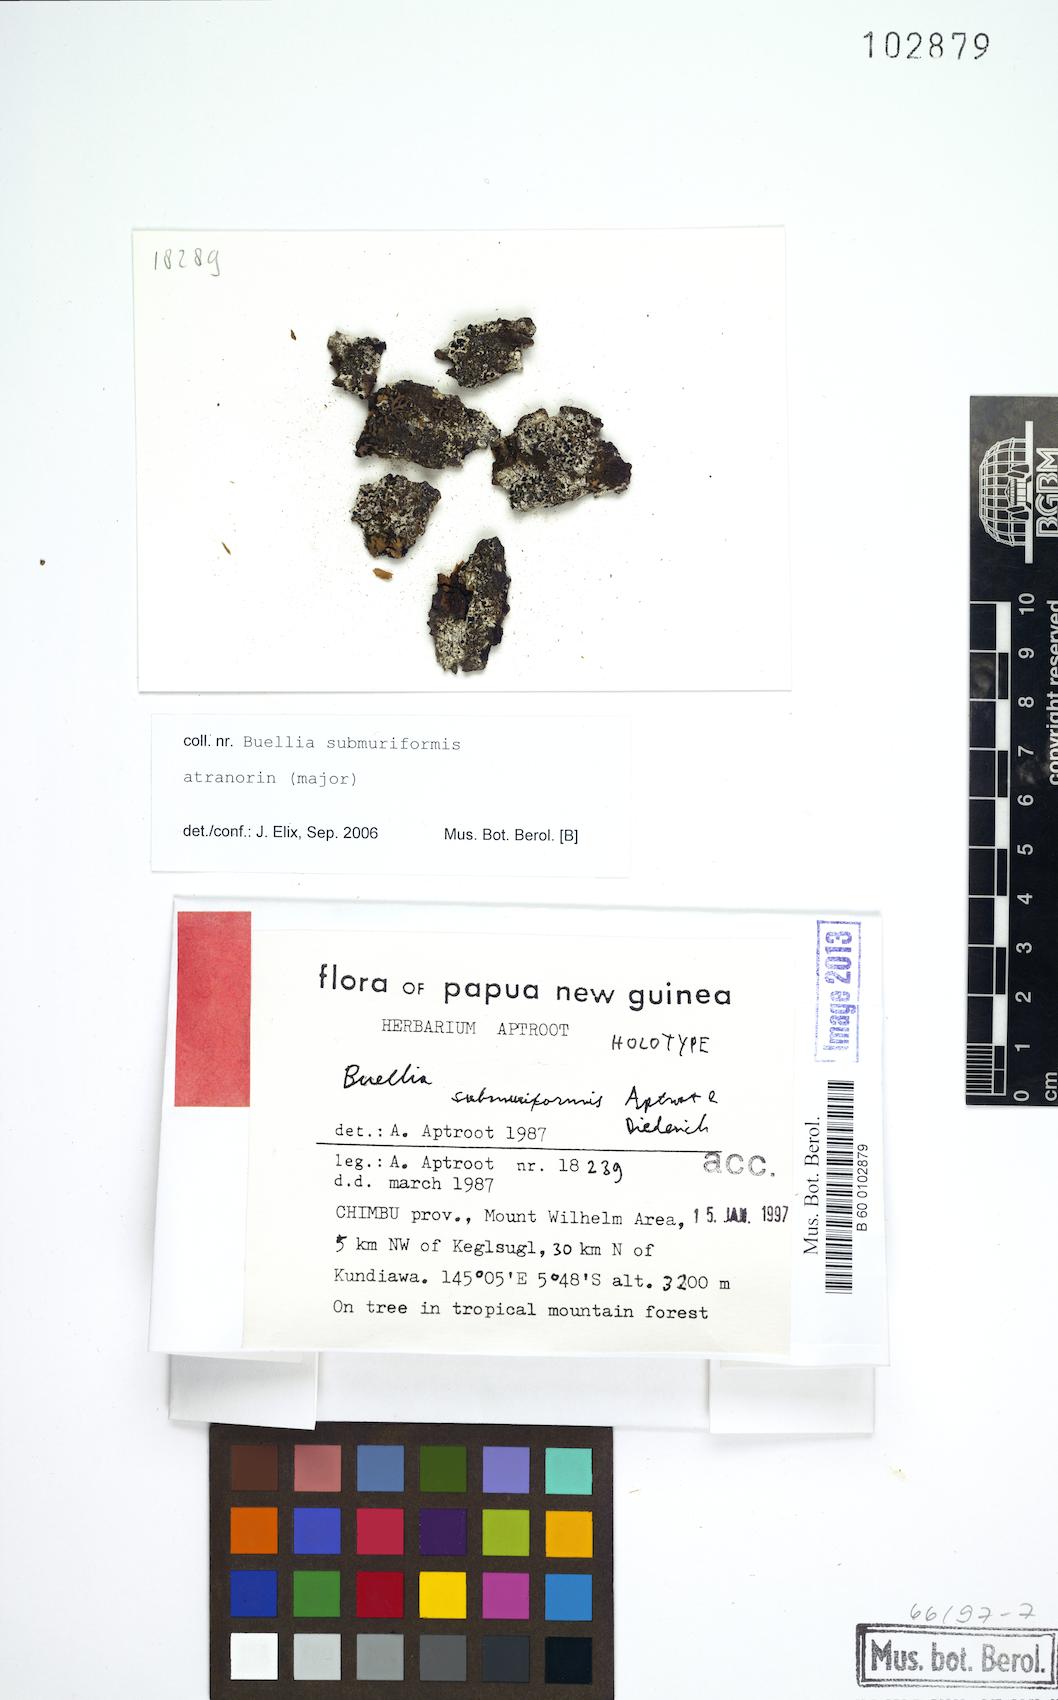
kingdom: Fungi
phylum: Ascomycota
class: Lecanoromycetes
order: Caliciales
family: Caliciaceae
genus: Cratiria
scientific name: Cratiria submuriformis
